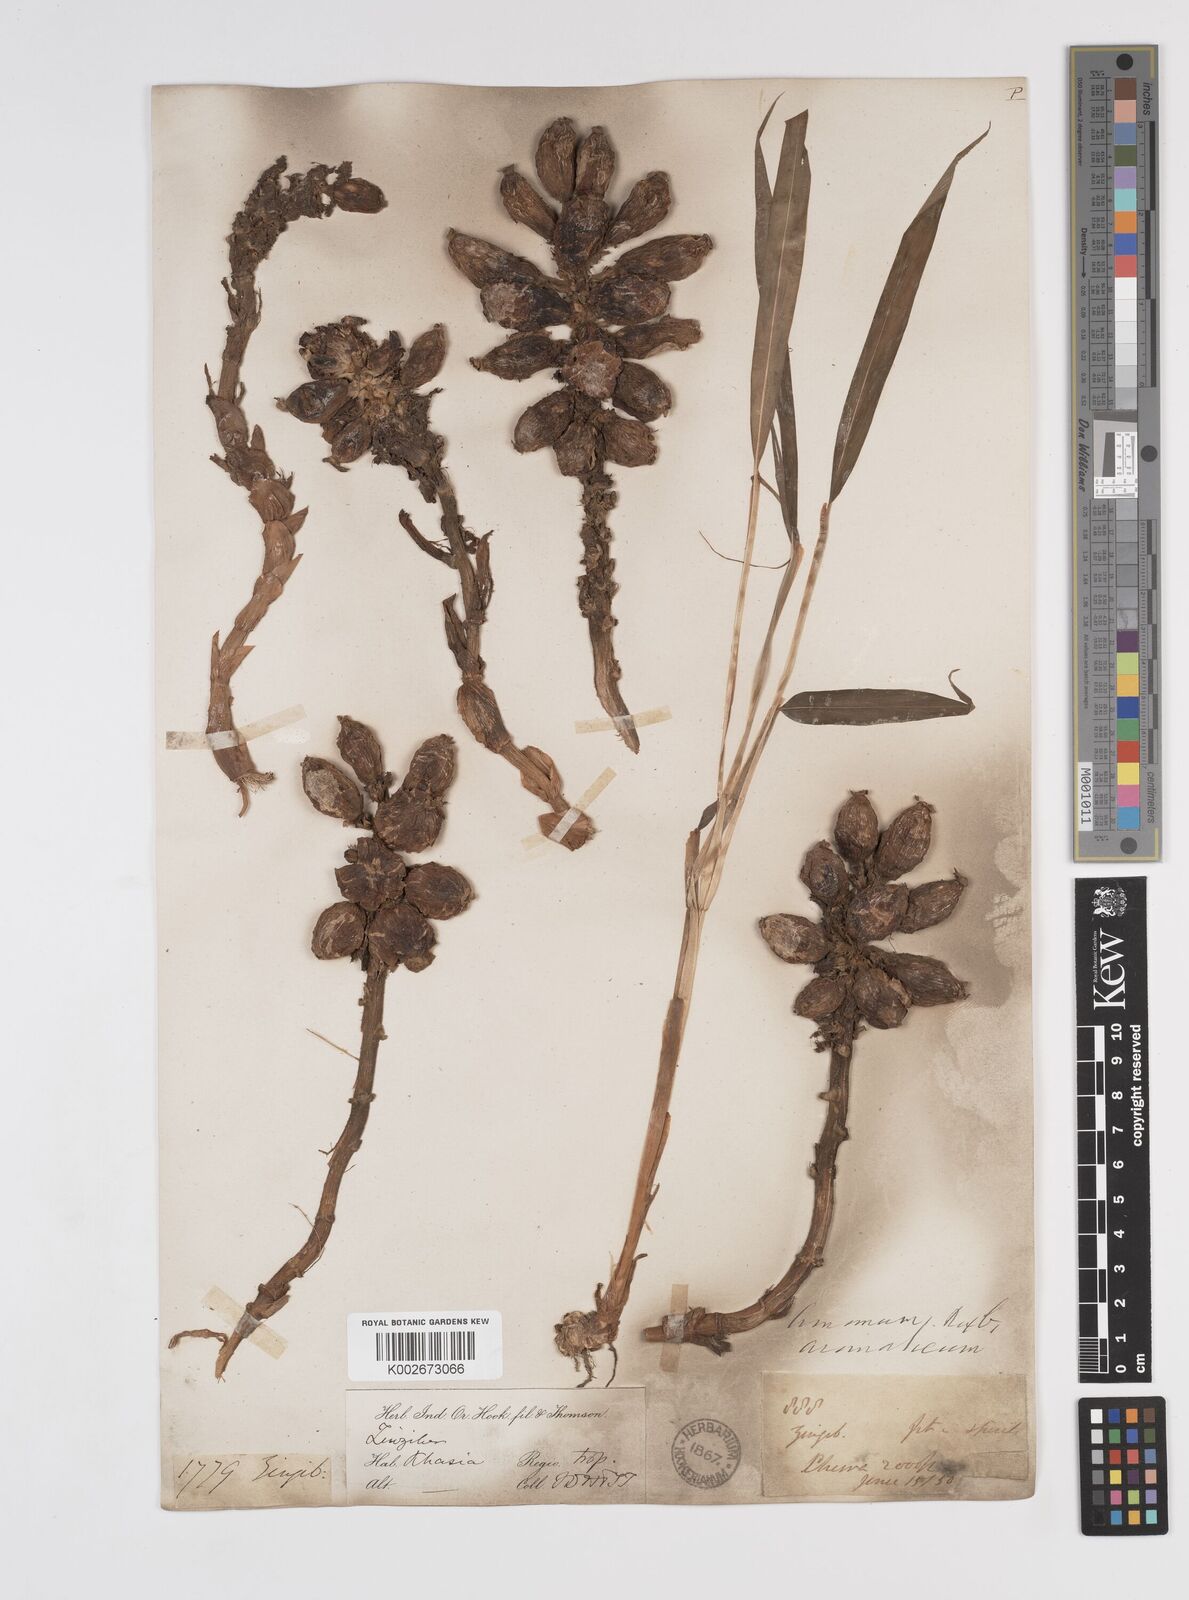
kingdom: Plantae
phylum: Tracheophyta
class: Liliopsida
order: Zingiberales
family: Zingiberaceae
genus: Wurfbainia
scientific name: Wurfbainia aromatica
